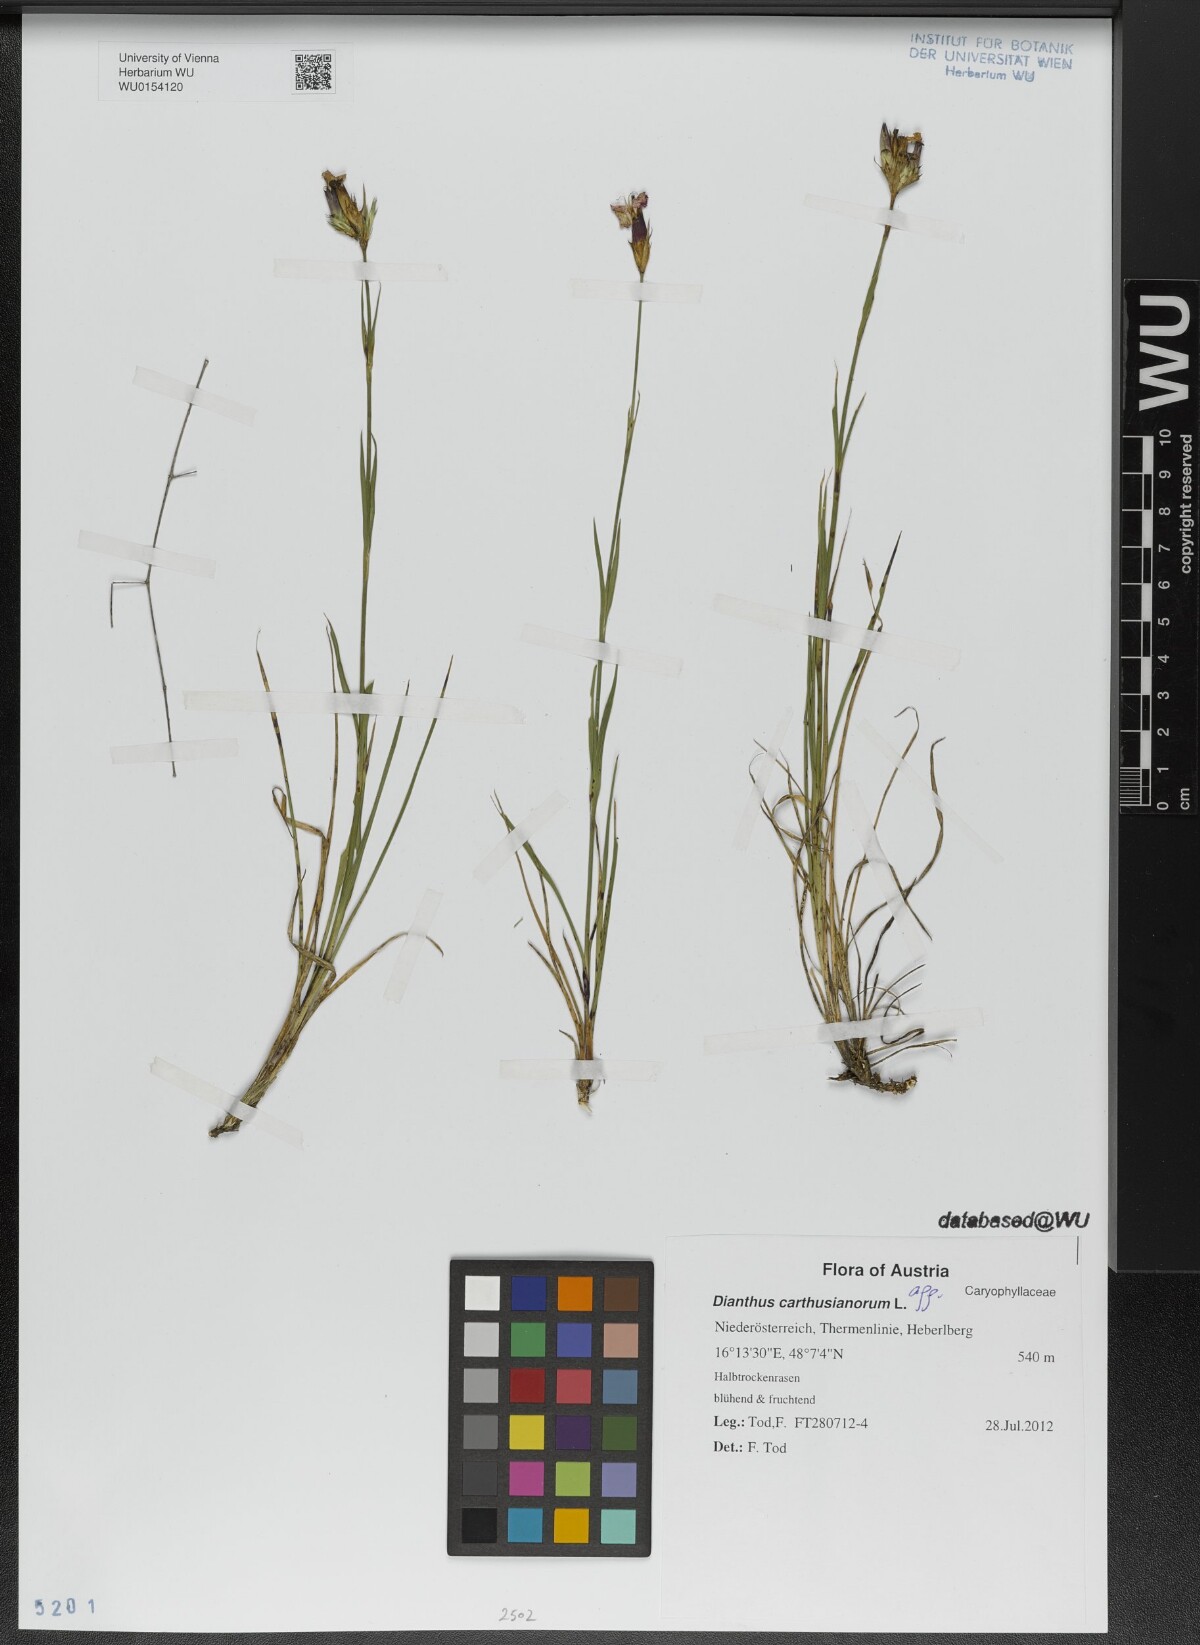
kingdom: Plantae
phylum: Tracheophyta
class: Magnoliopsida
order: Caryophyllales
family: Caryophyllaceae
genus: Dianthus
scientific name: Dianthus carthusianorum
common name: Carthusian pink
